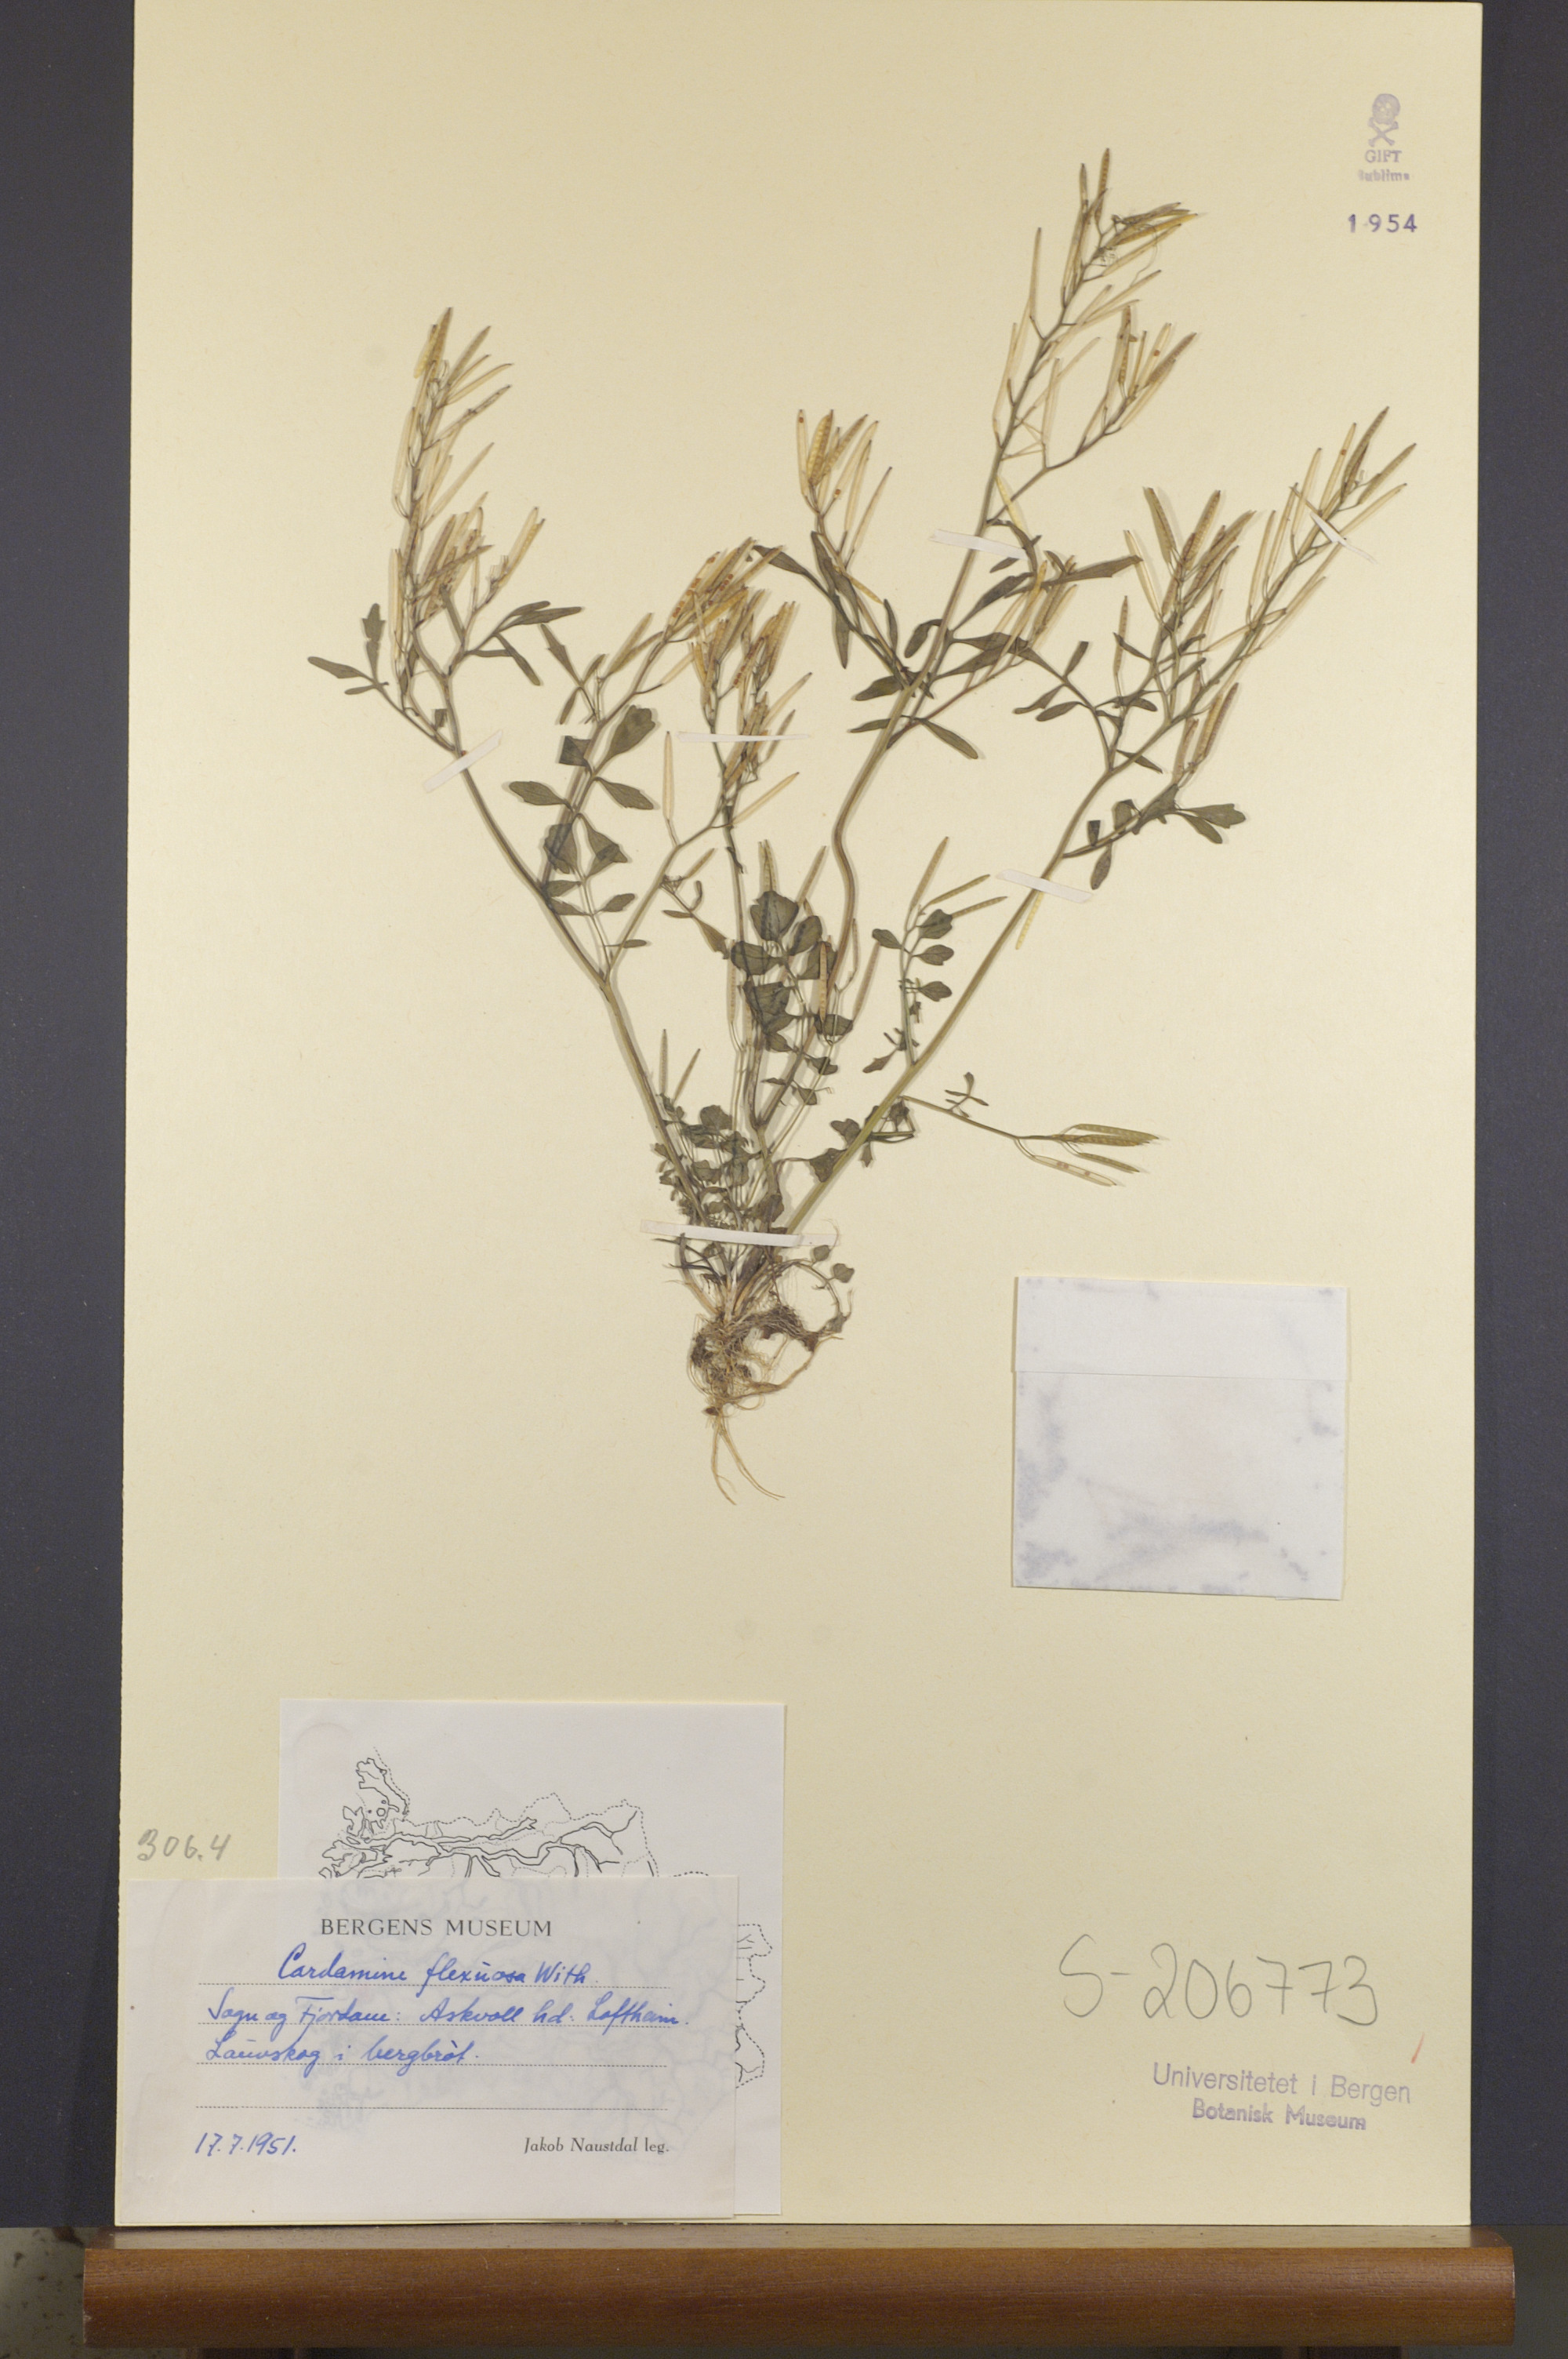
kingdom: Plantae
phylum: Tracheophyta
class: Magnoliopsida
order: Brassicales
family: Brassicaceae
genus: Cardamine
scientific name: Cardamine flexuosa
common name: Woodland bittercress
